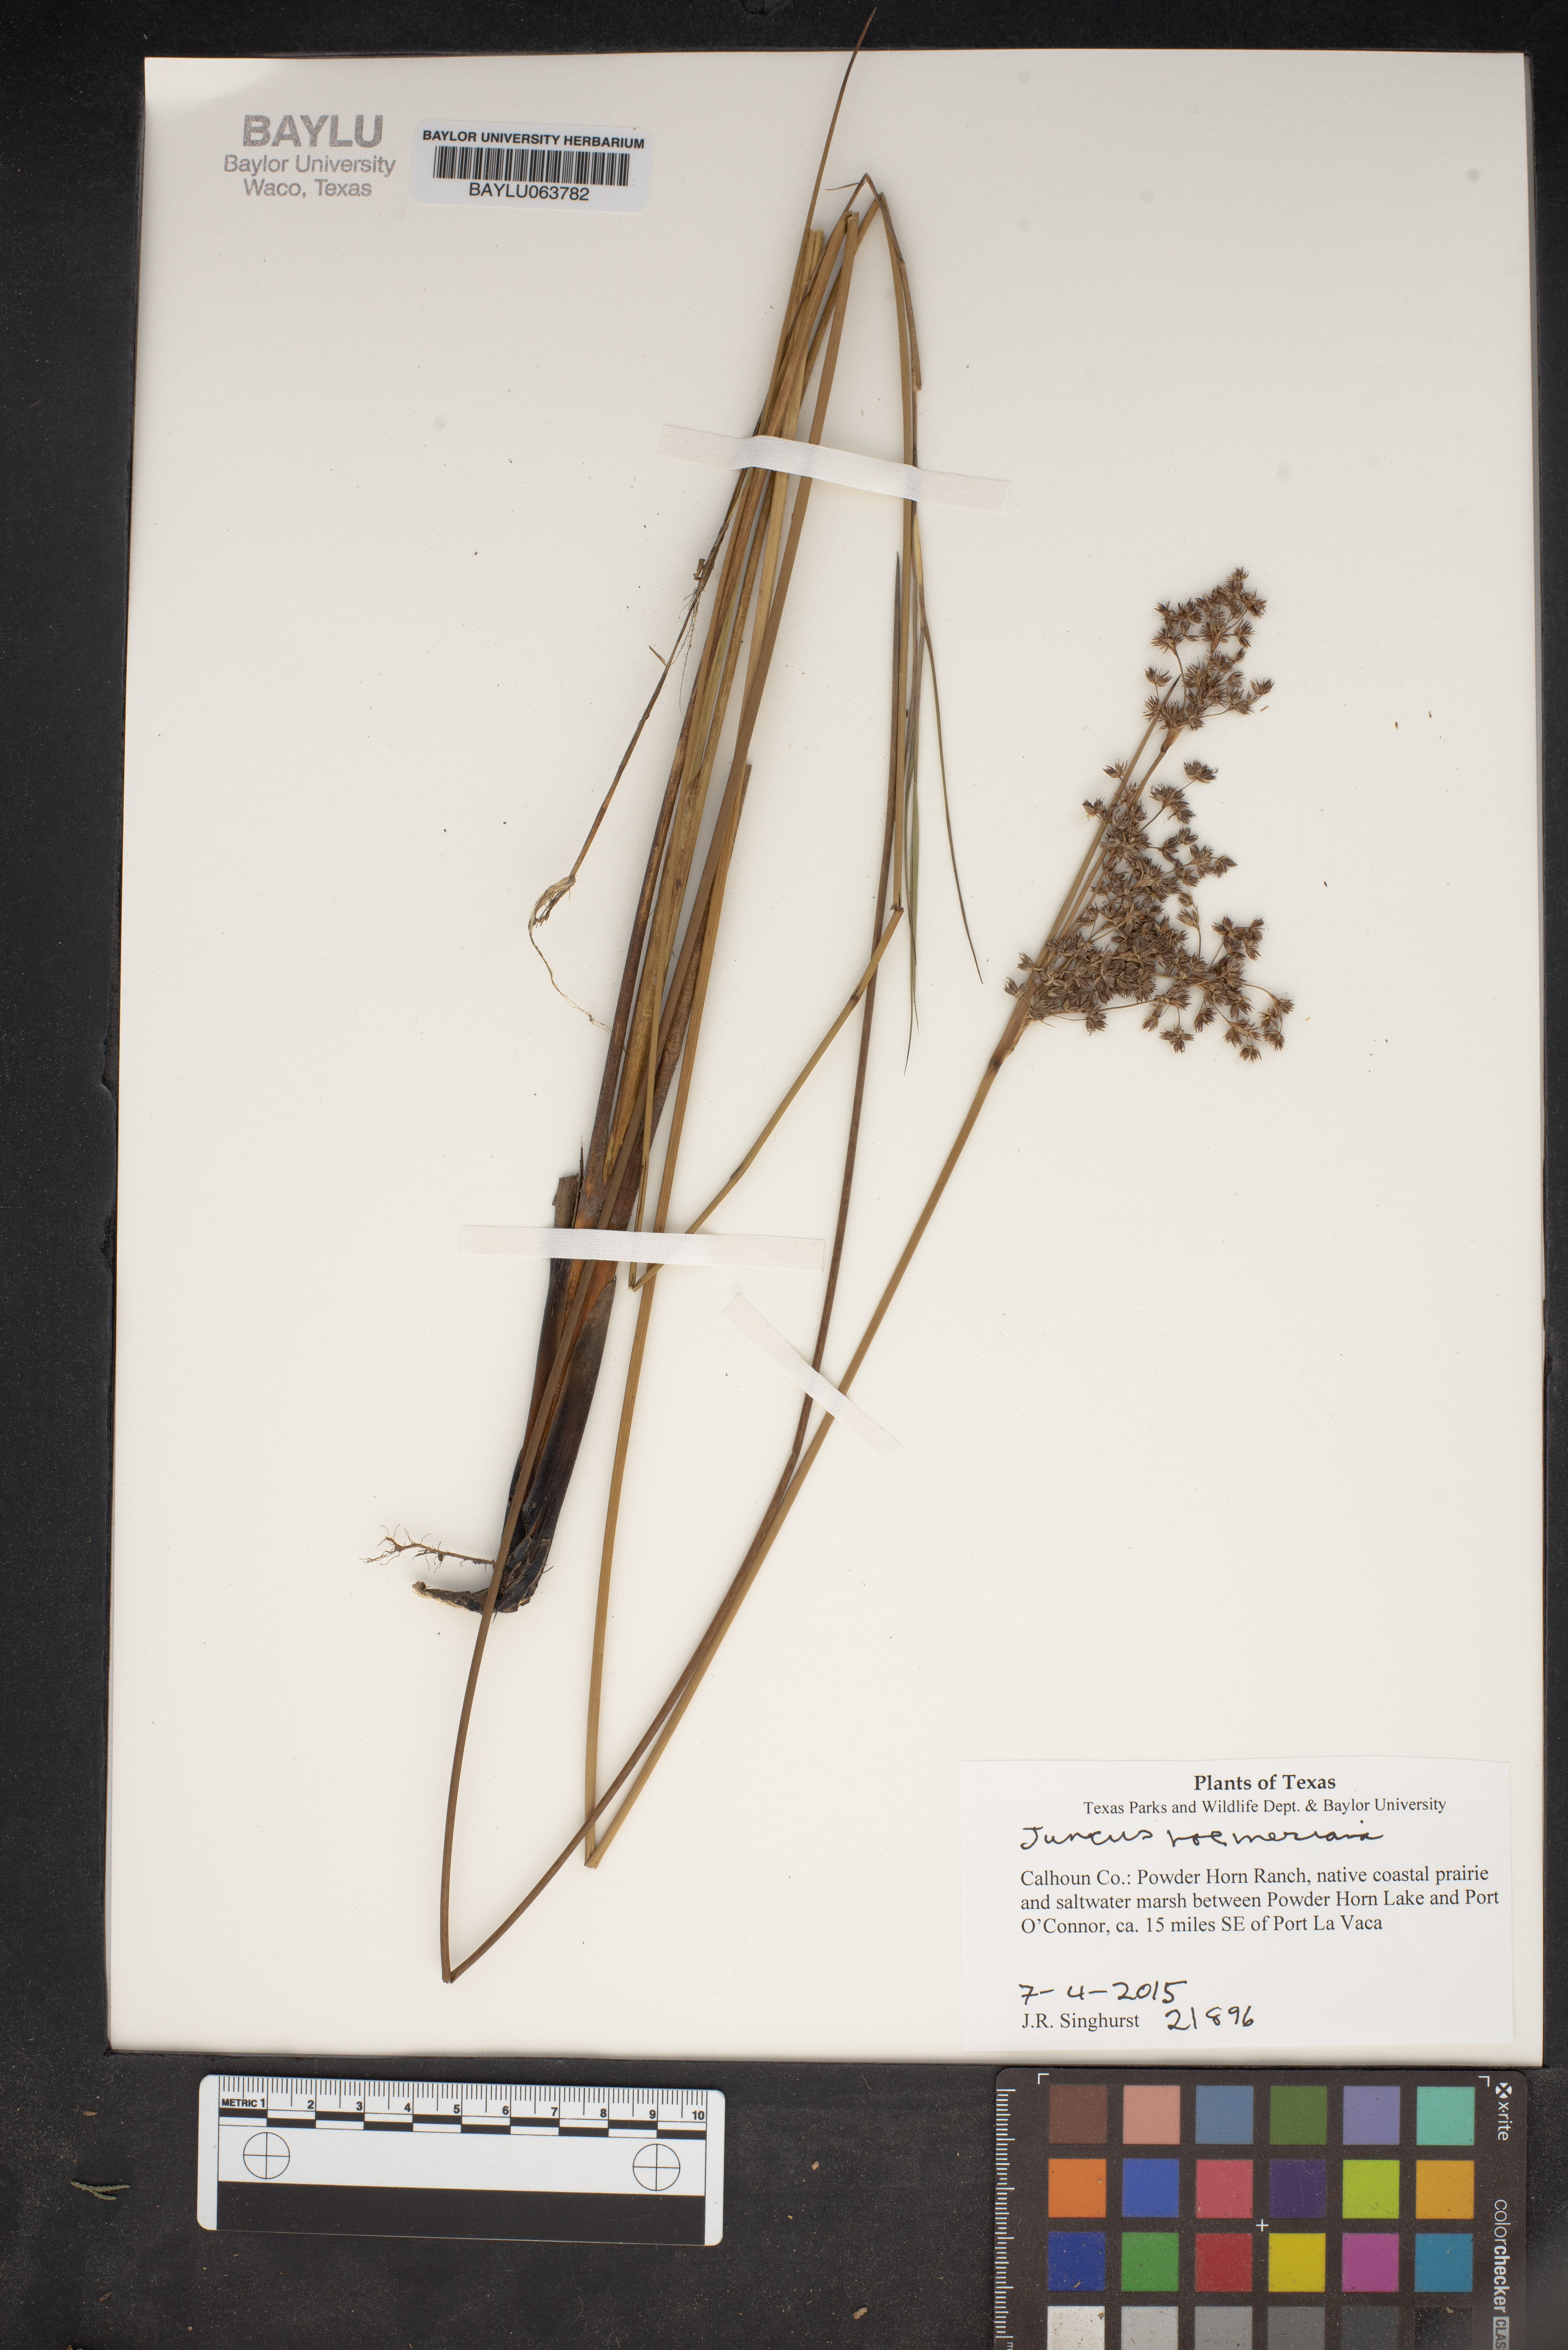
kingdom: Plantae
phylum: Tracheophyta
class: Liliopsida
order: Poales
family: Juncaceae
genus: Juncus
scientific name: Juncus roemerianus
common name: Roemer's rush
